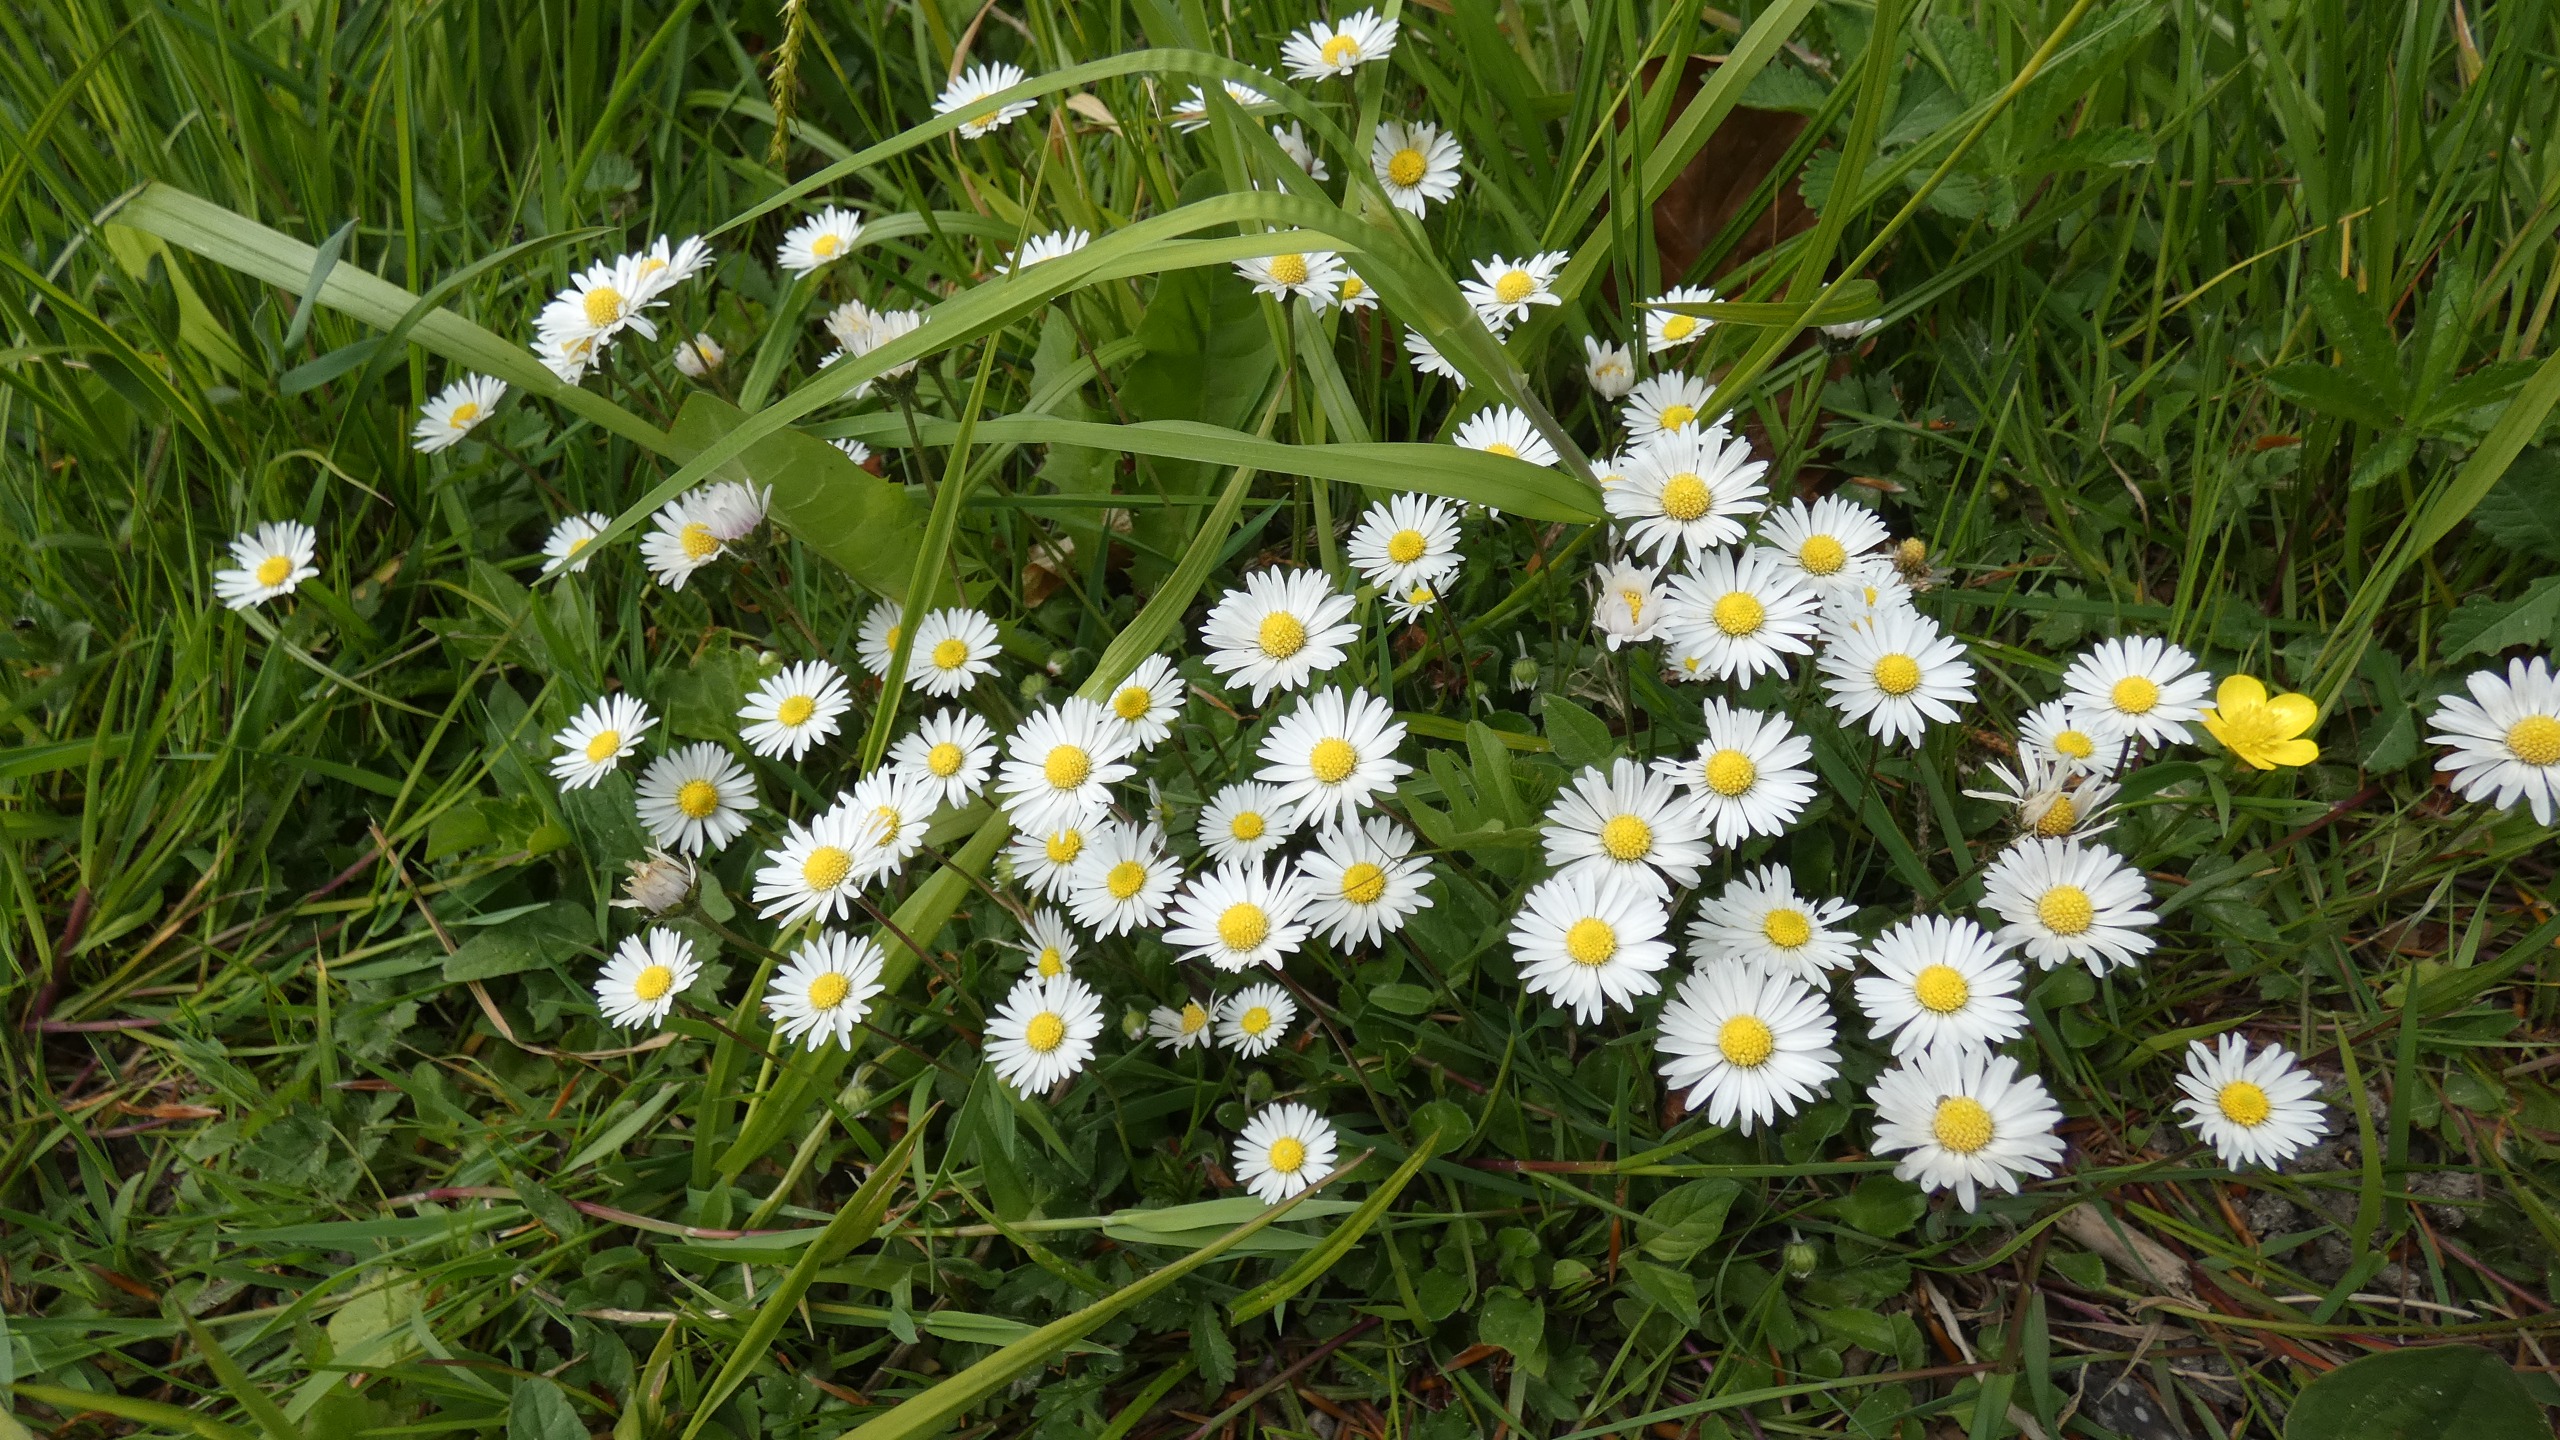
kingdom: Plantae
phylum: Tracheophyta
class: Magnoliopsida
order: Asterales
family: Asteraceae
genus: Bellis
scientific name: Bellis perennis
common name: Tusindfryd
